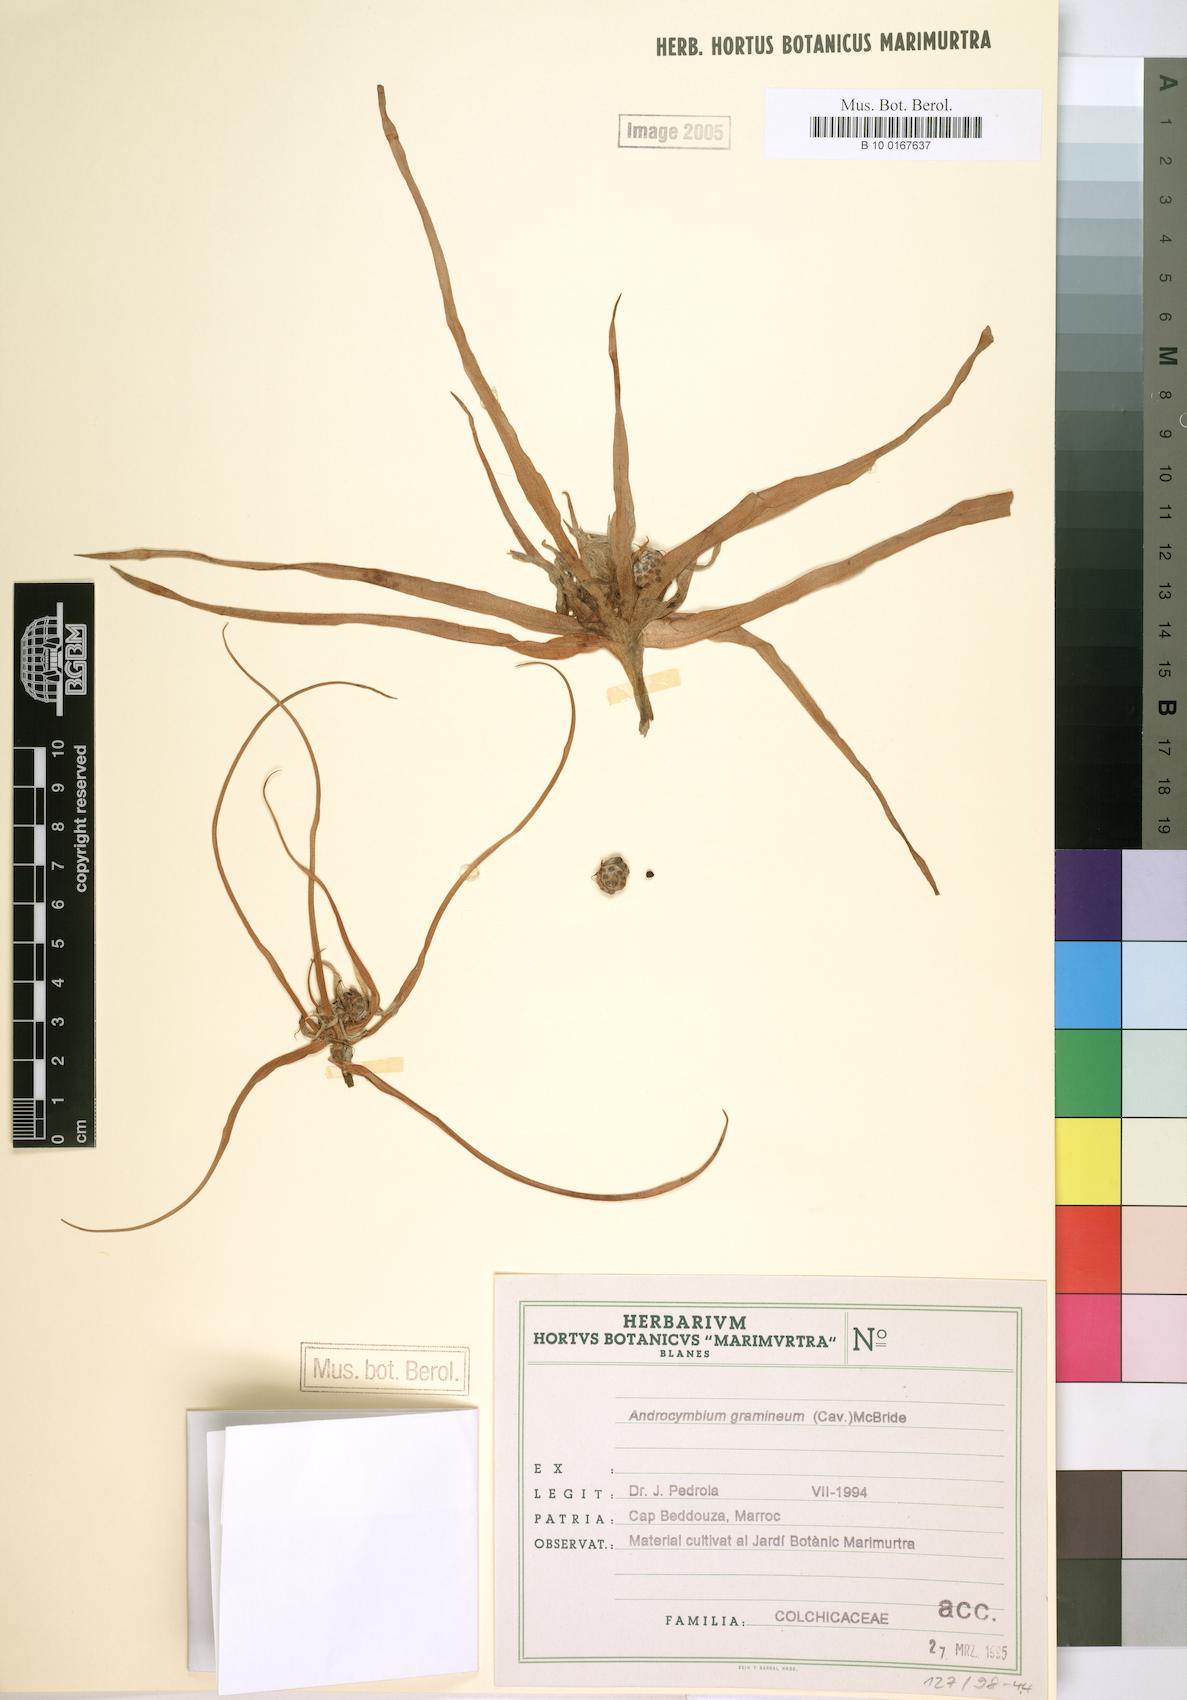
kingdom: Plantae
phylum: Tracheophyta
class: Liliopsida
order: Liliales
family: Colchicaceae
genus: Colchicum
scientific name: Colchicum gramineum
